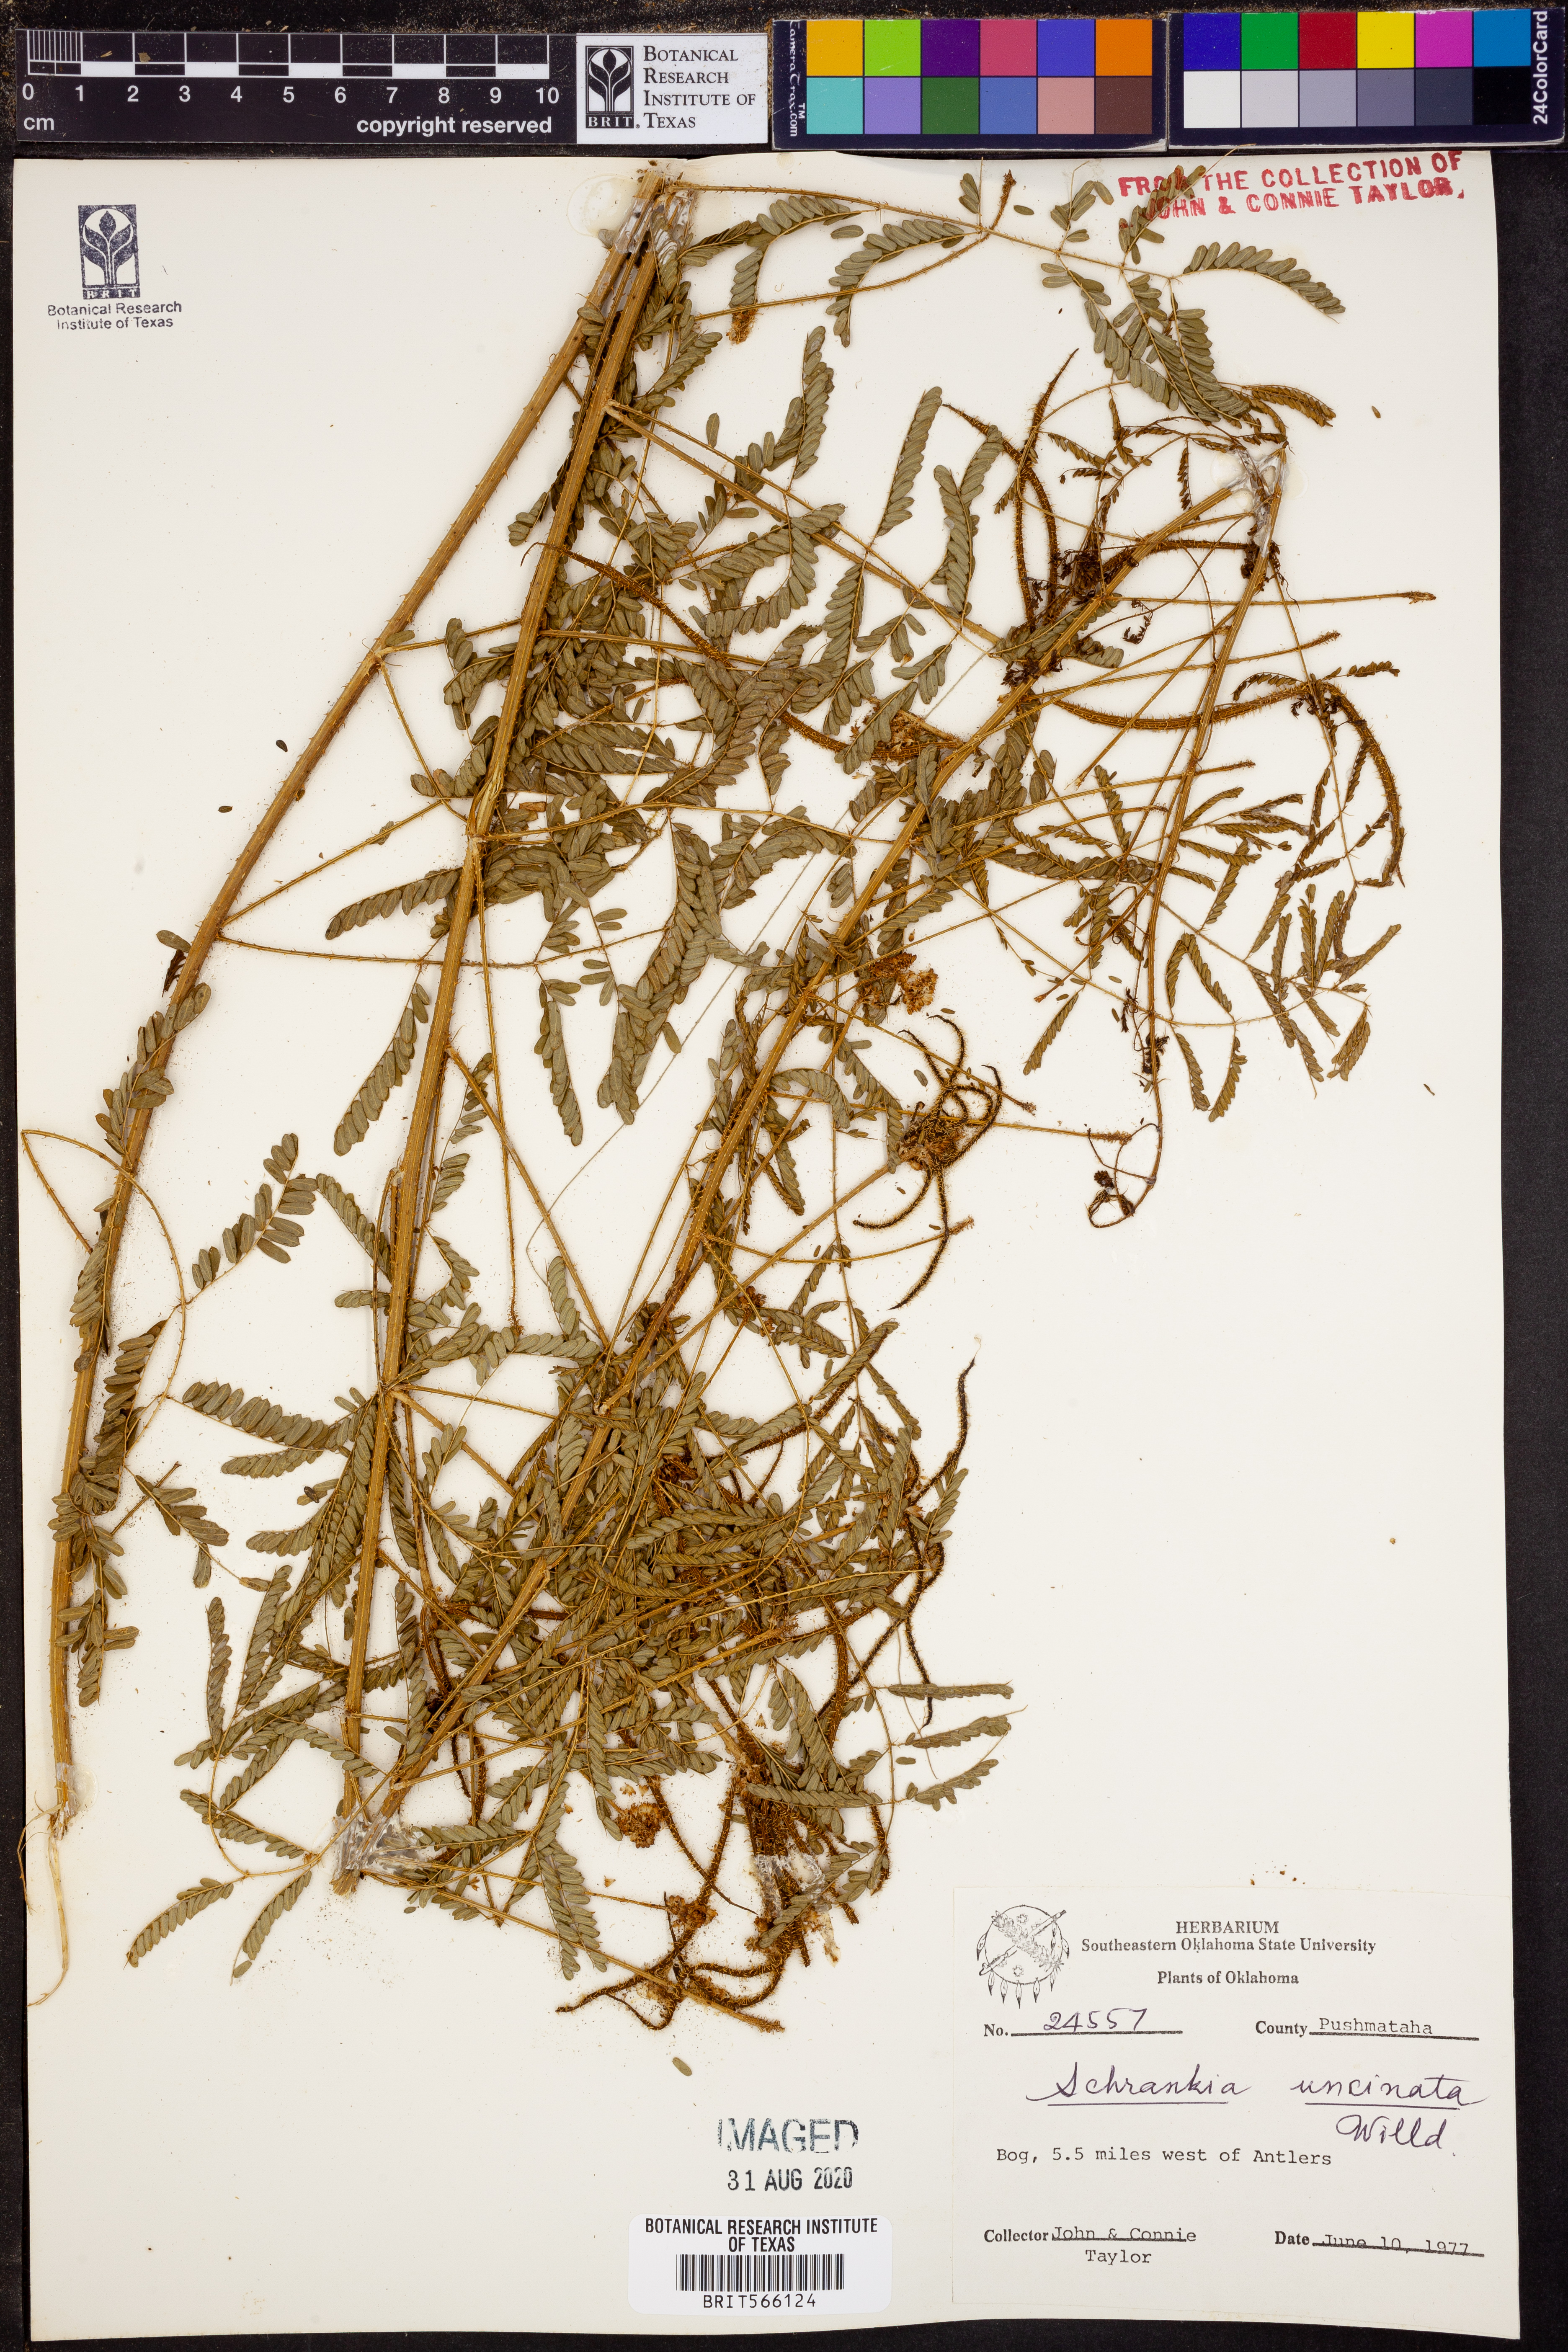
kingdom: Plantae
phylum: Tracheophyta
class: Magnoliopsida
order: Fabales
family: Fabaceae
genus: Mimosa
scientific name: Mimosa quadrivalvis
